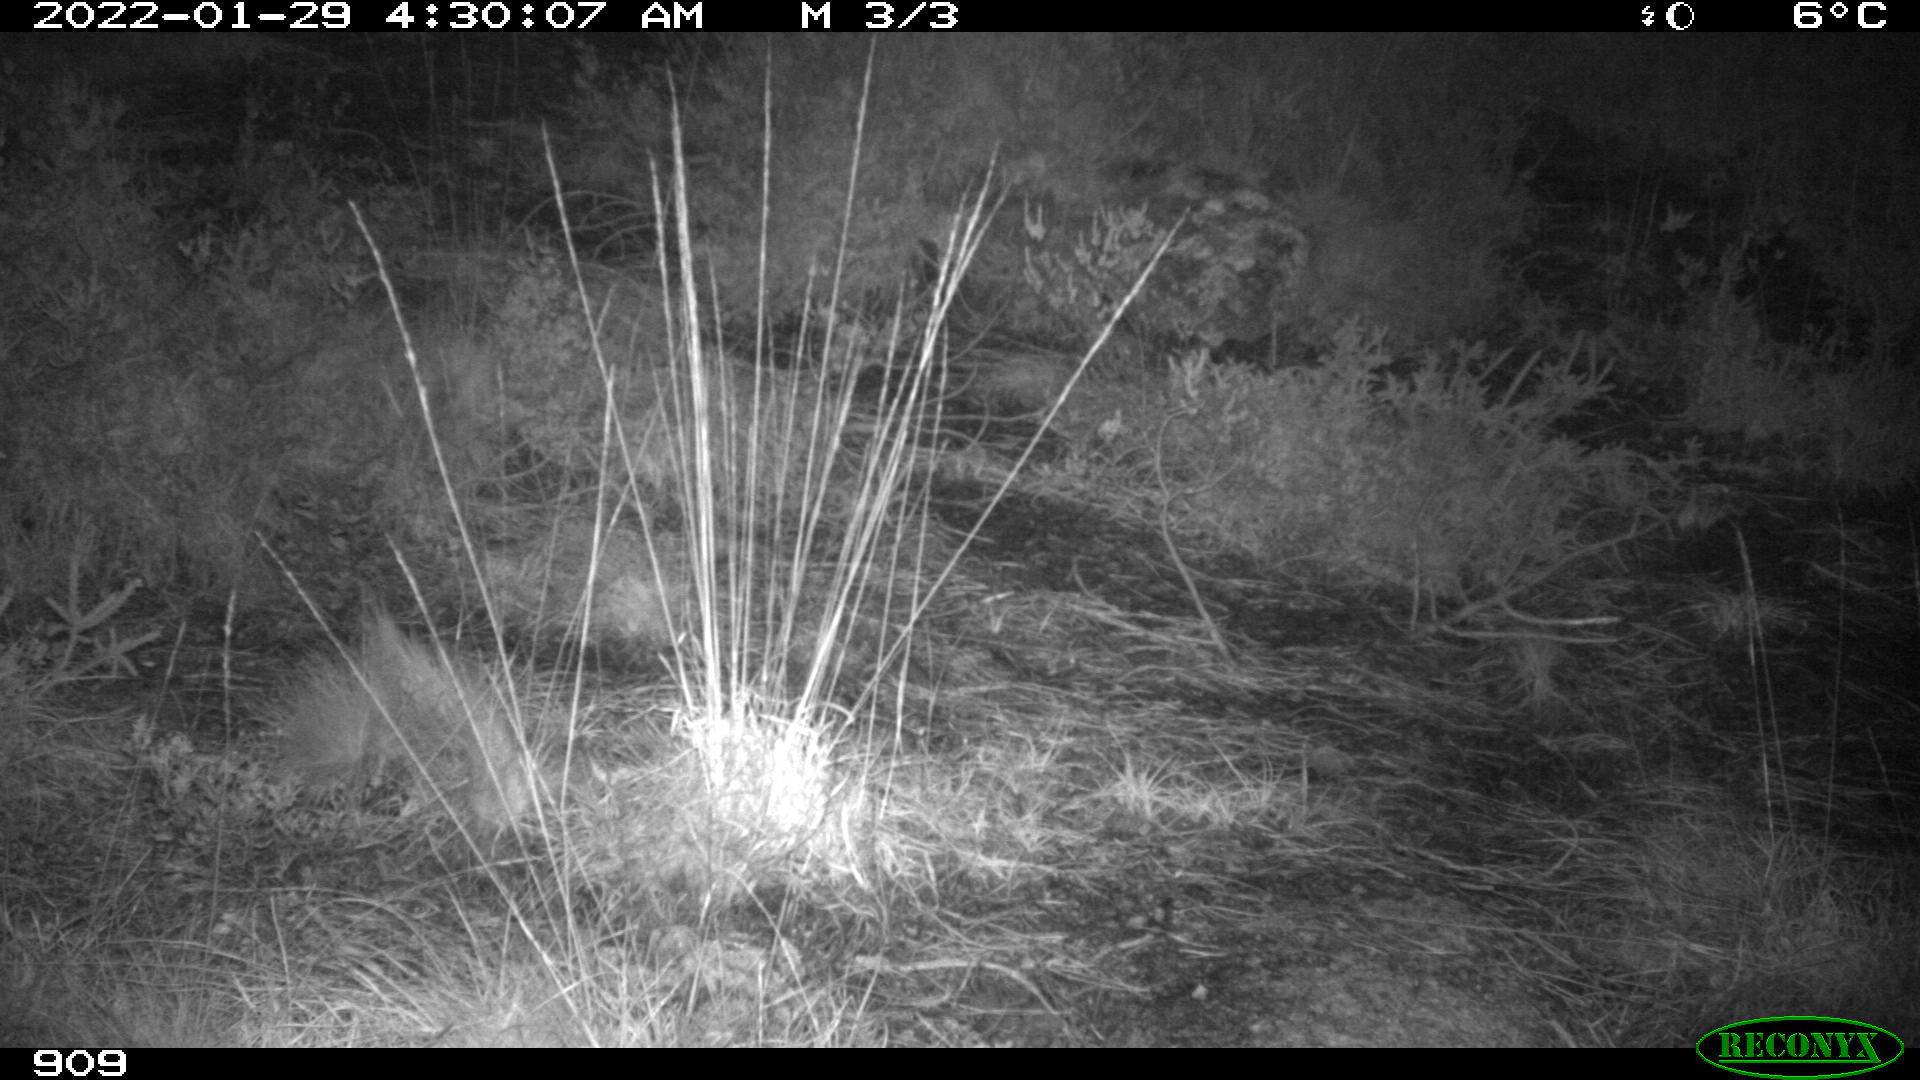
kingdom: Animalia
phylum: Chordata
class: Mammalia
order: Artiodactyla
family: Suidae
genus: Sus
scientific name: Sus scrofa
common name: Wild boar
